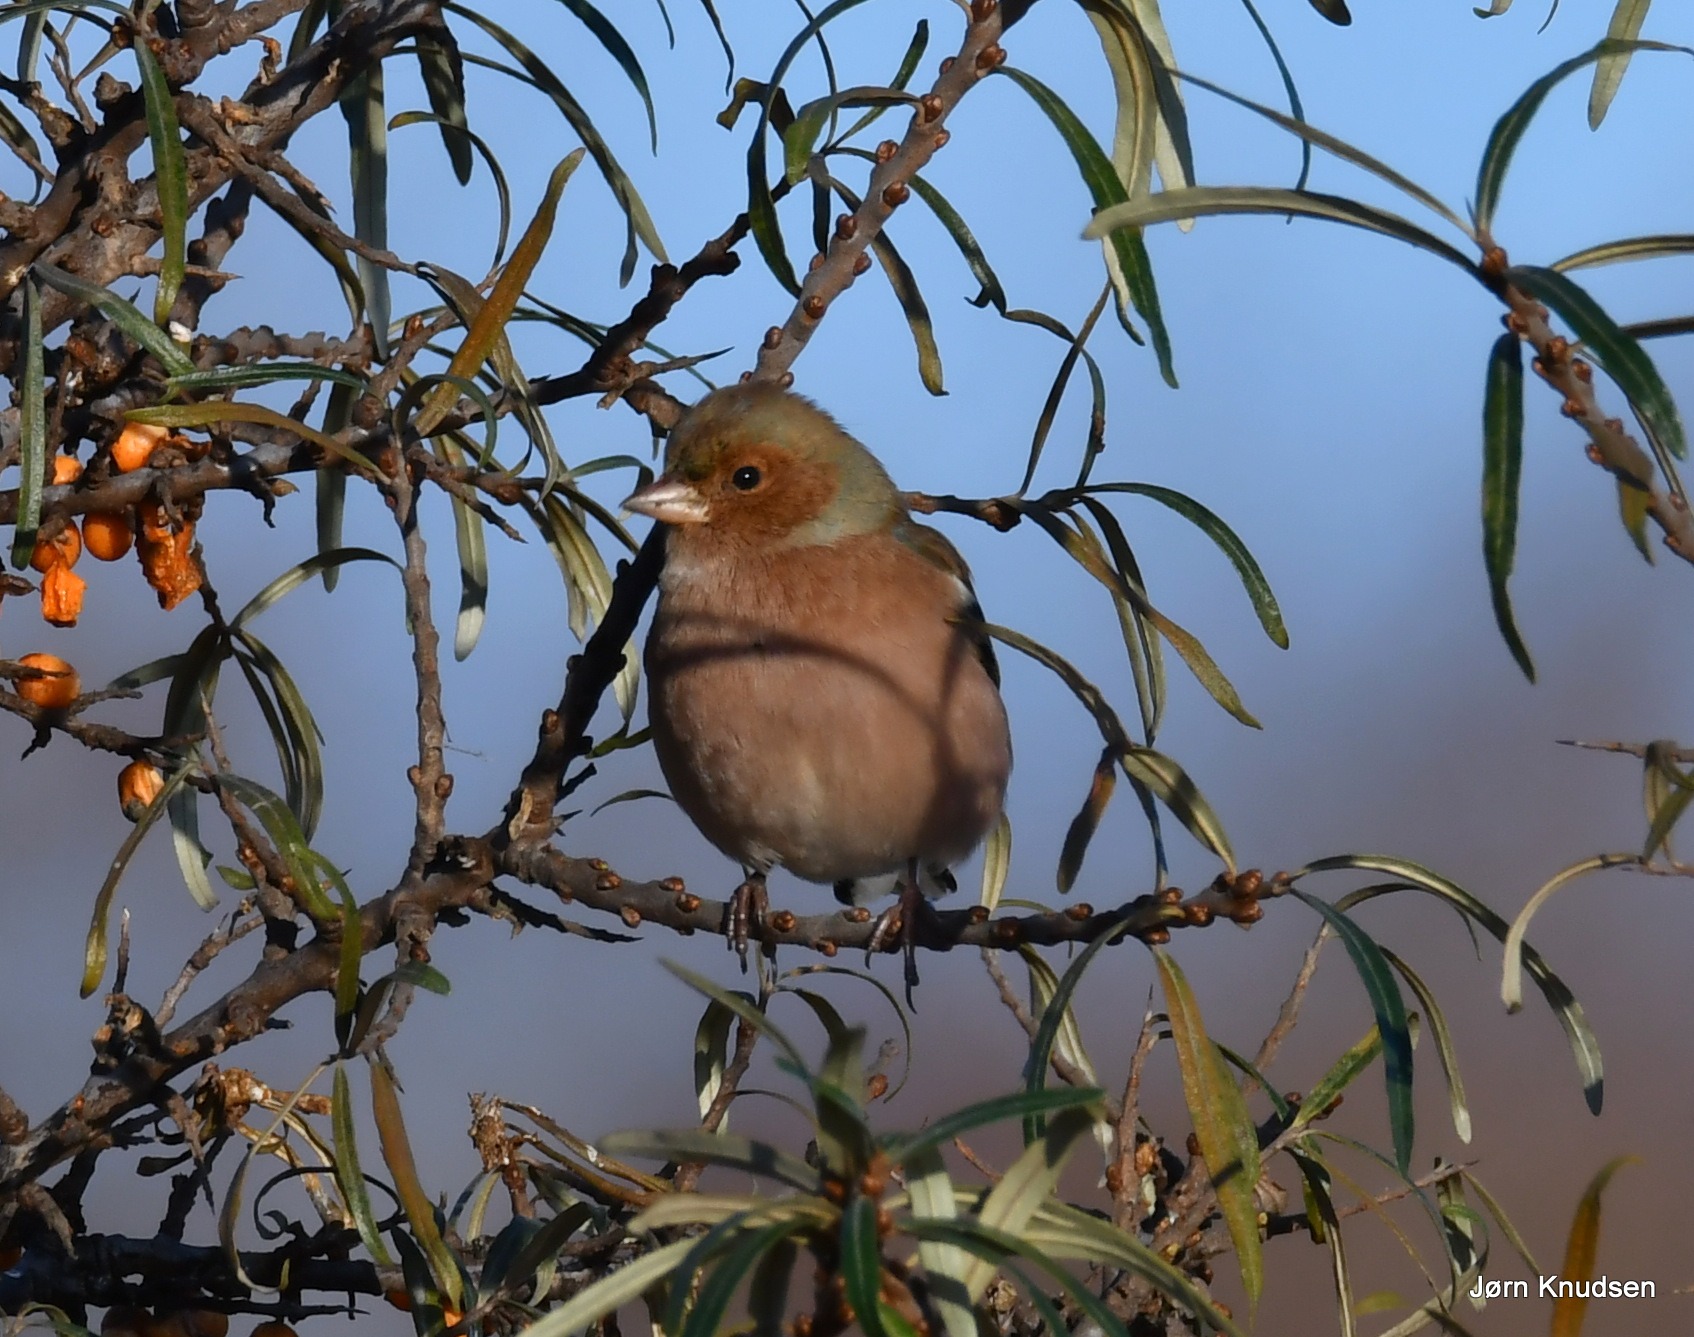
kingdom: Animalia
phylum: Chordata
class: Aves
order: Passeriformes
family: Fringillidae
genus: Fringilla
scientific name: Fringilla coelebs
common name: Bogfinke
